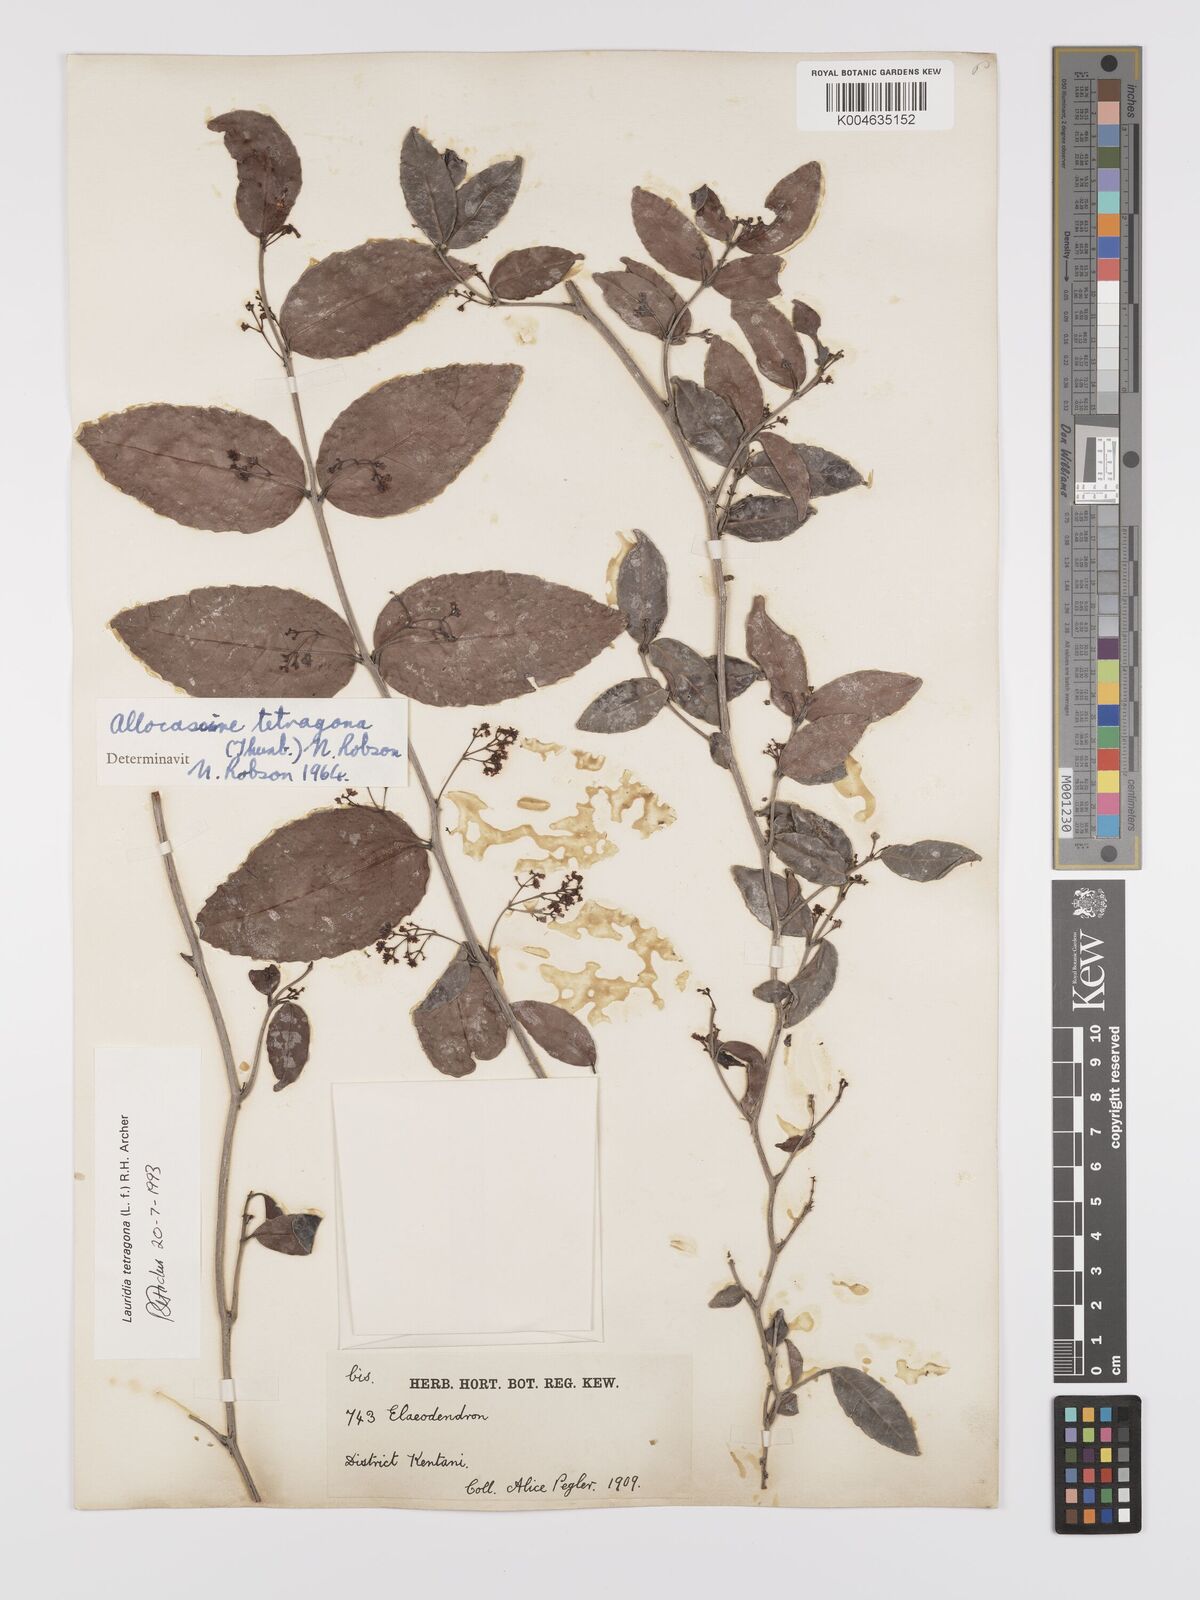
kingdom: Plantae
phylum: Tracheophyta
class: Magnoliopsida
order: Celastrales
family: Celastraceae
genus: Lauridia
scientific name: Lauridia tetragona
